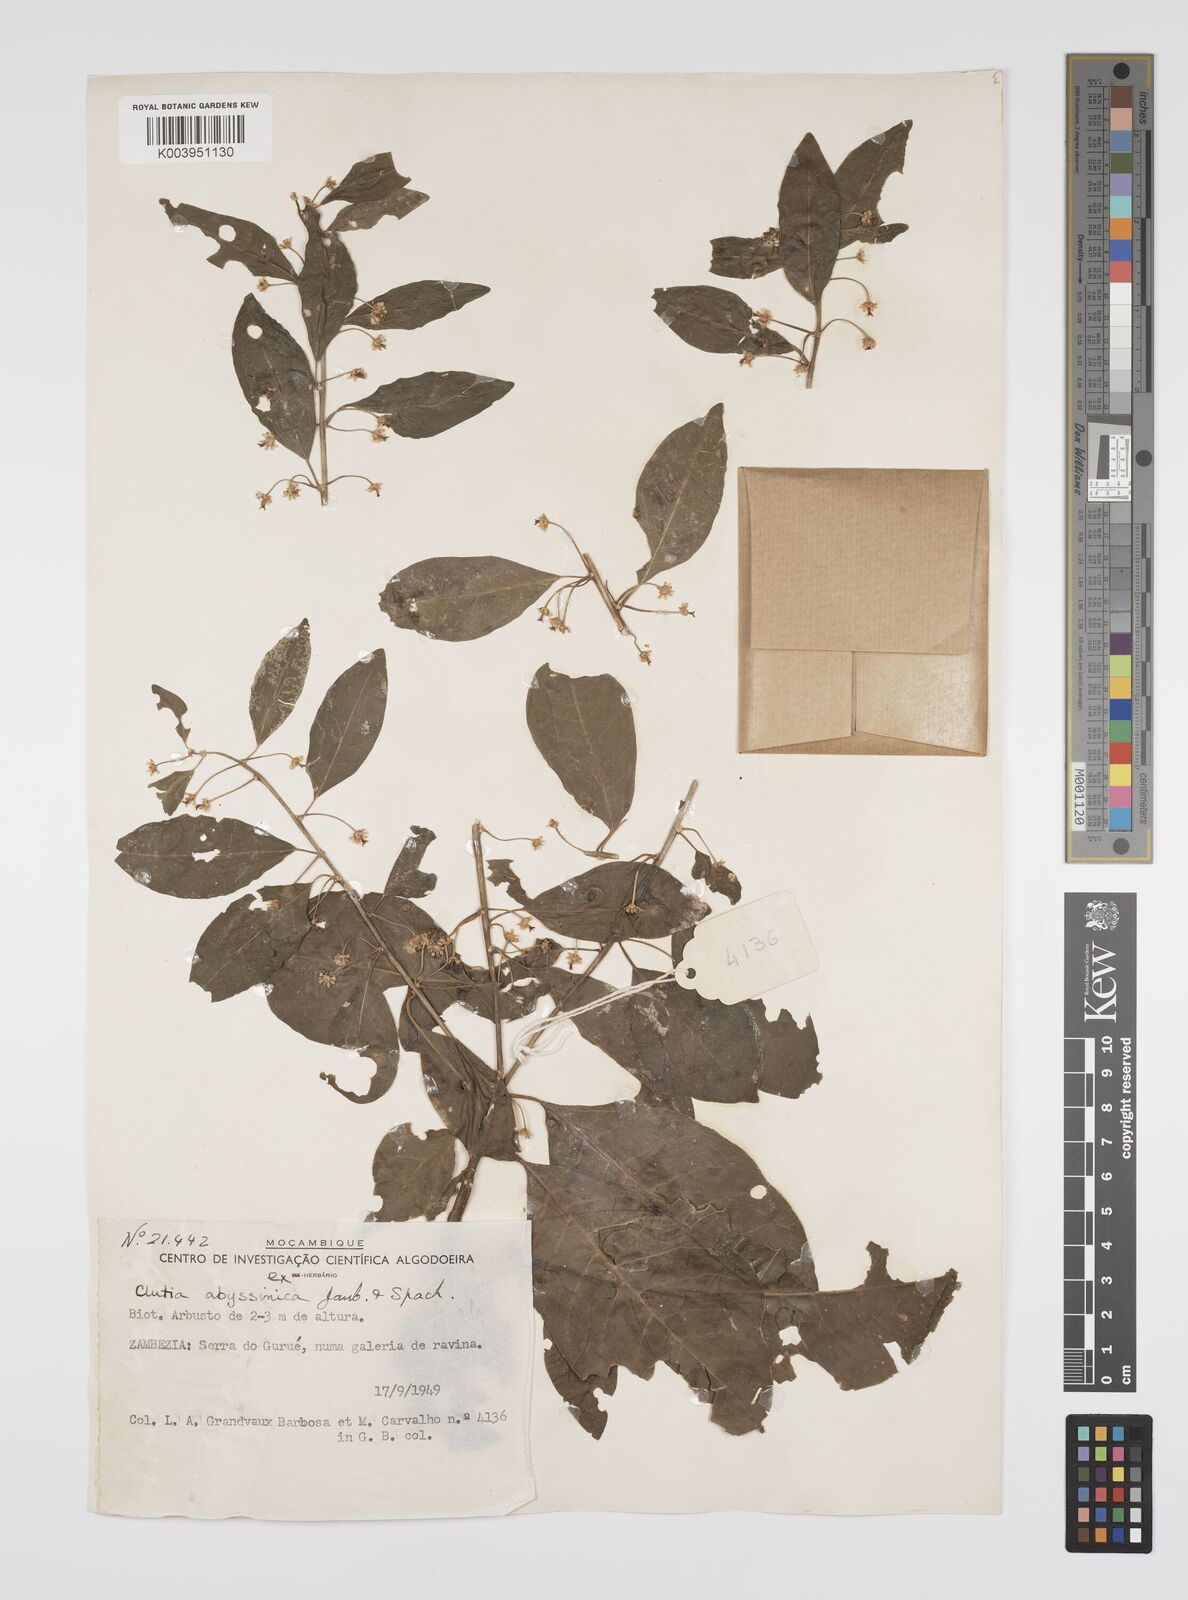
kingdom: Plantae
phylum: Tracheophyta
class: Magnoliopsida
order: Malpighiales
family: Peraceae
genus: Clutia
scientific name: Clutia abyssinica
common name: Large lightning bush
